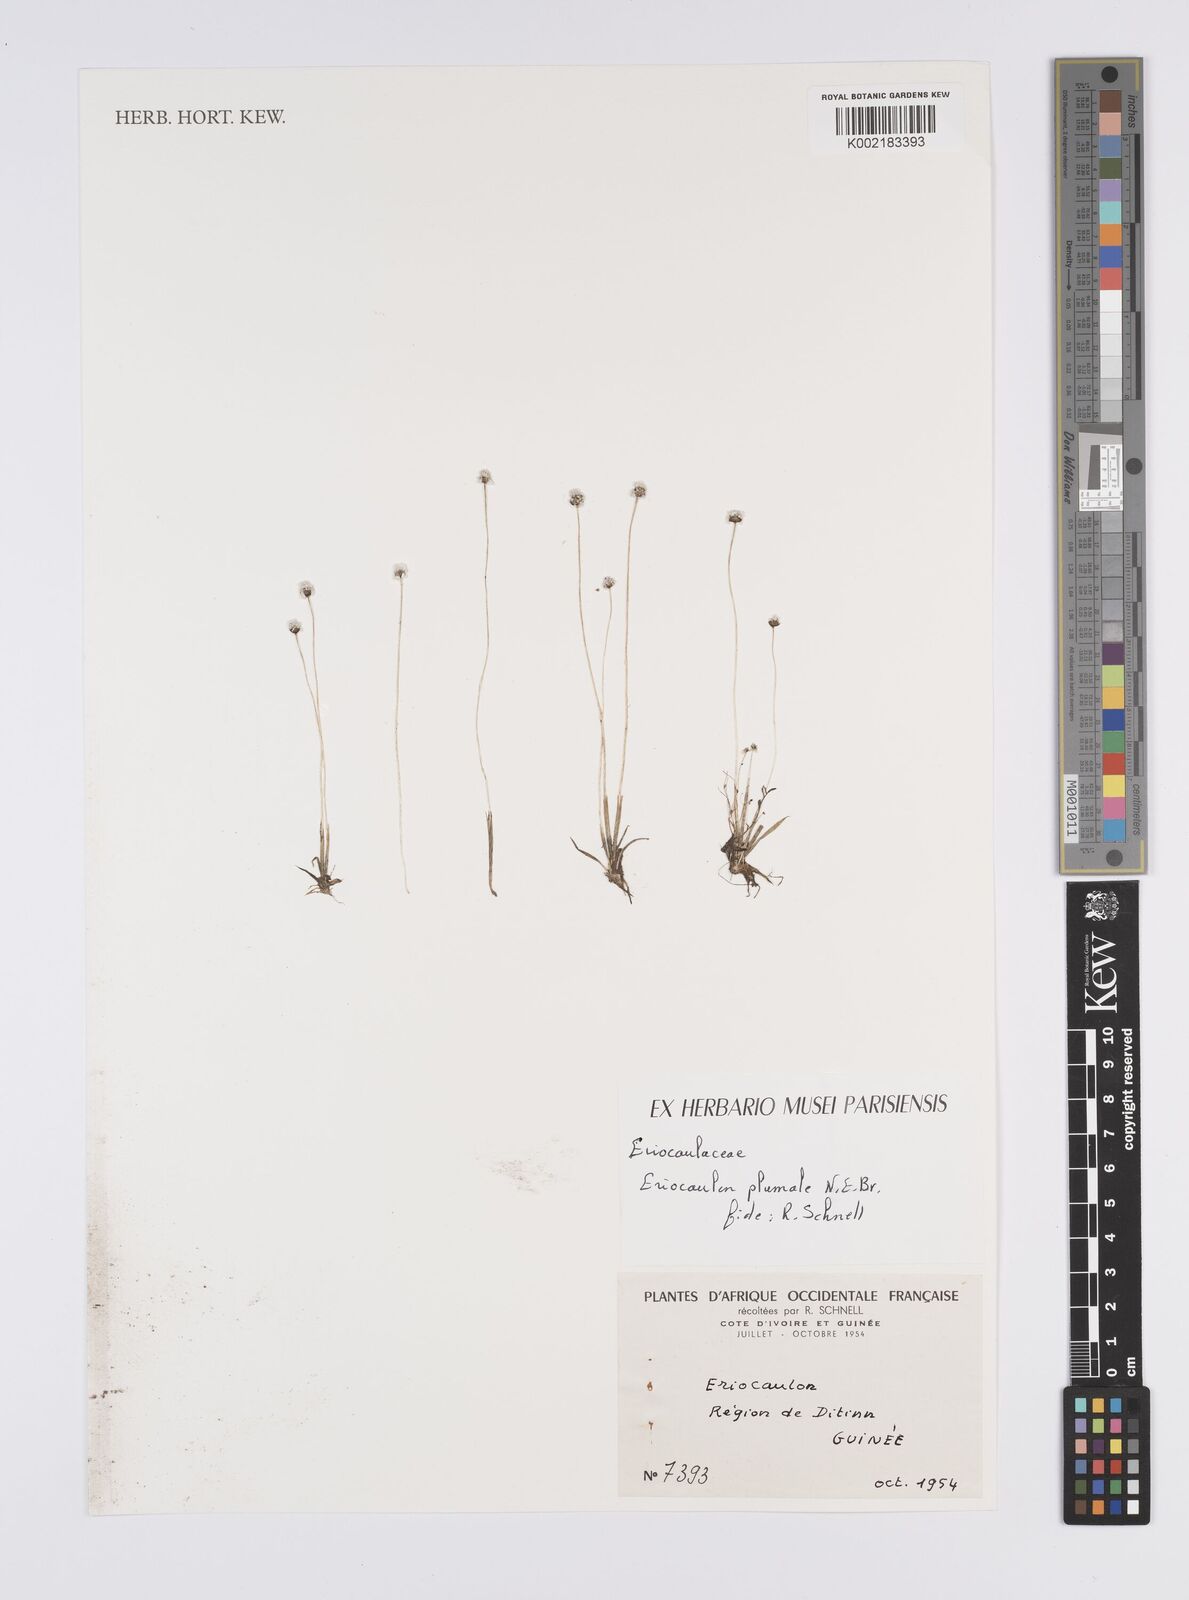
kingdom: Plantae
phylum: Tracheophyta
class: Liliopsida
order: Poales
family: Eriocaulaceae
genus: Eriocaulon
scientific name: Eriocaulon plumale
